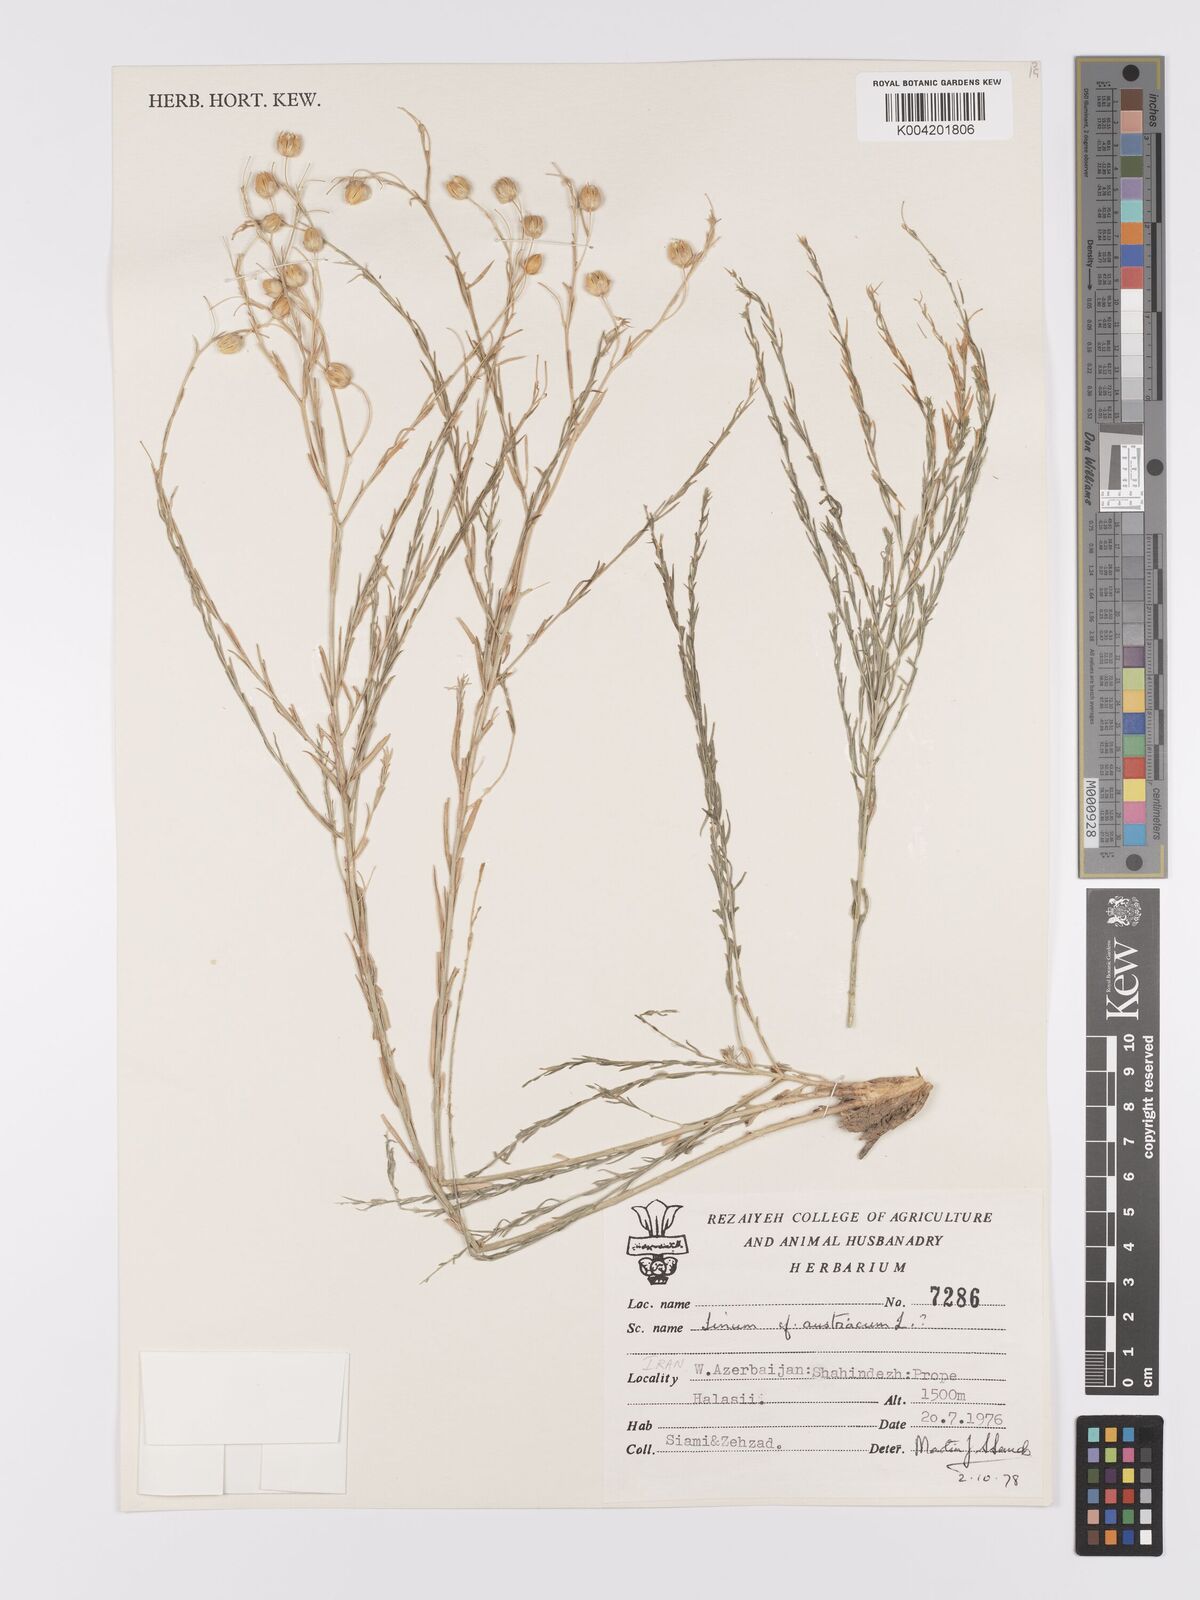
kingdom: Plantae
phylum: Tracheophyta
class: Magnoliopsida
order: Malpighiales
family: Linaceae
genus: Linum
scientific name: Linum
